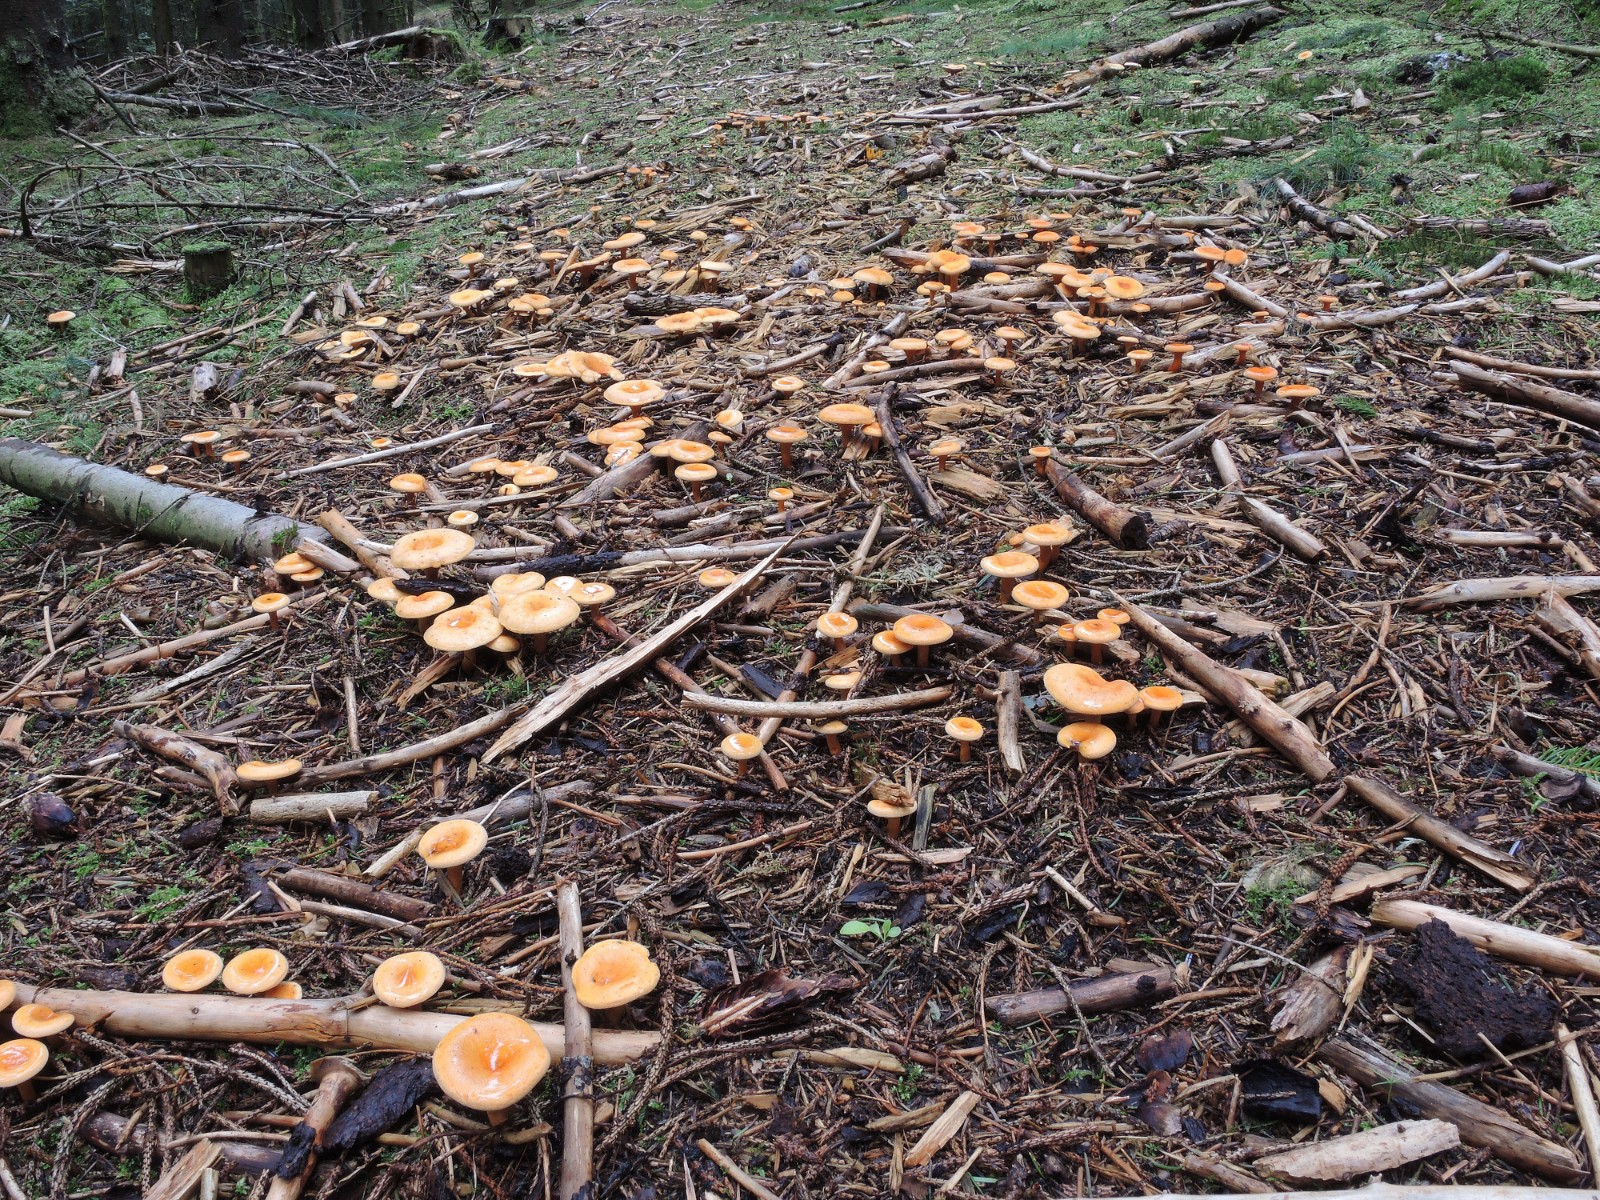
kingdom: Fungi
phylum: Basidiomycota
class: Agaricomycetes
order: Boletales
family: Hygrophoropsidaceae
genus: Hygrophoropsis
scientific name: Hygrophoropsis aurantiaca
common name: almindelig orangekantarel
